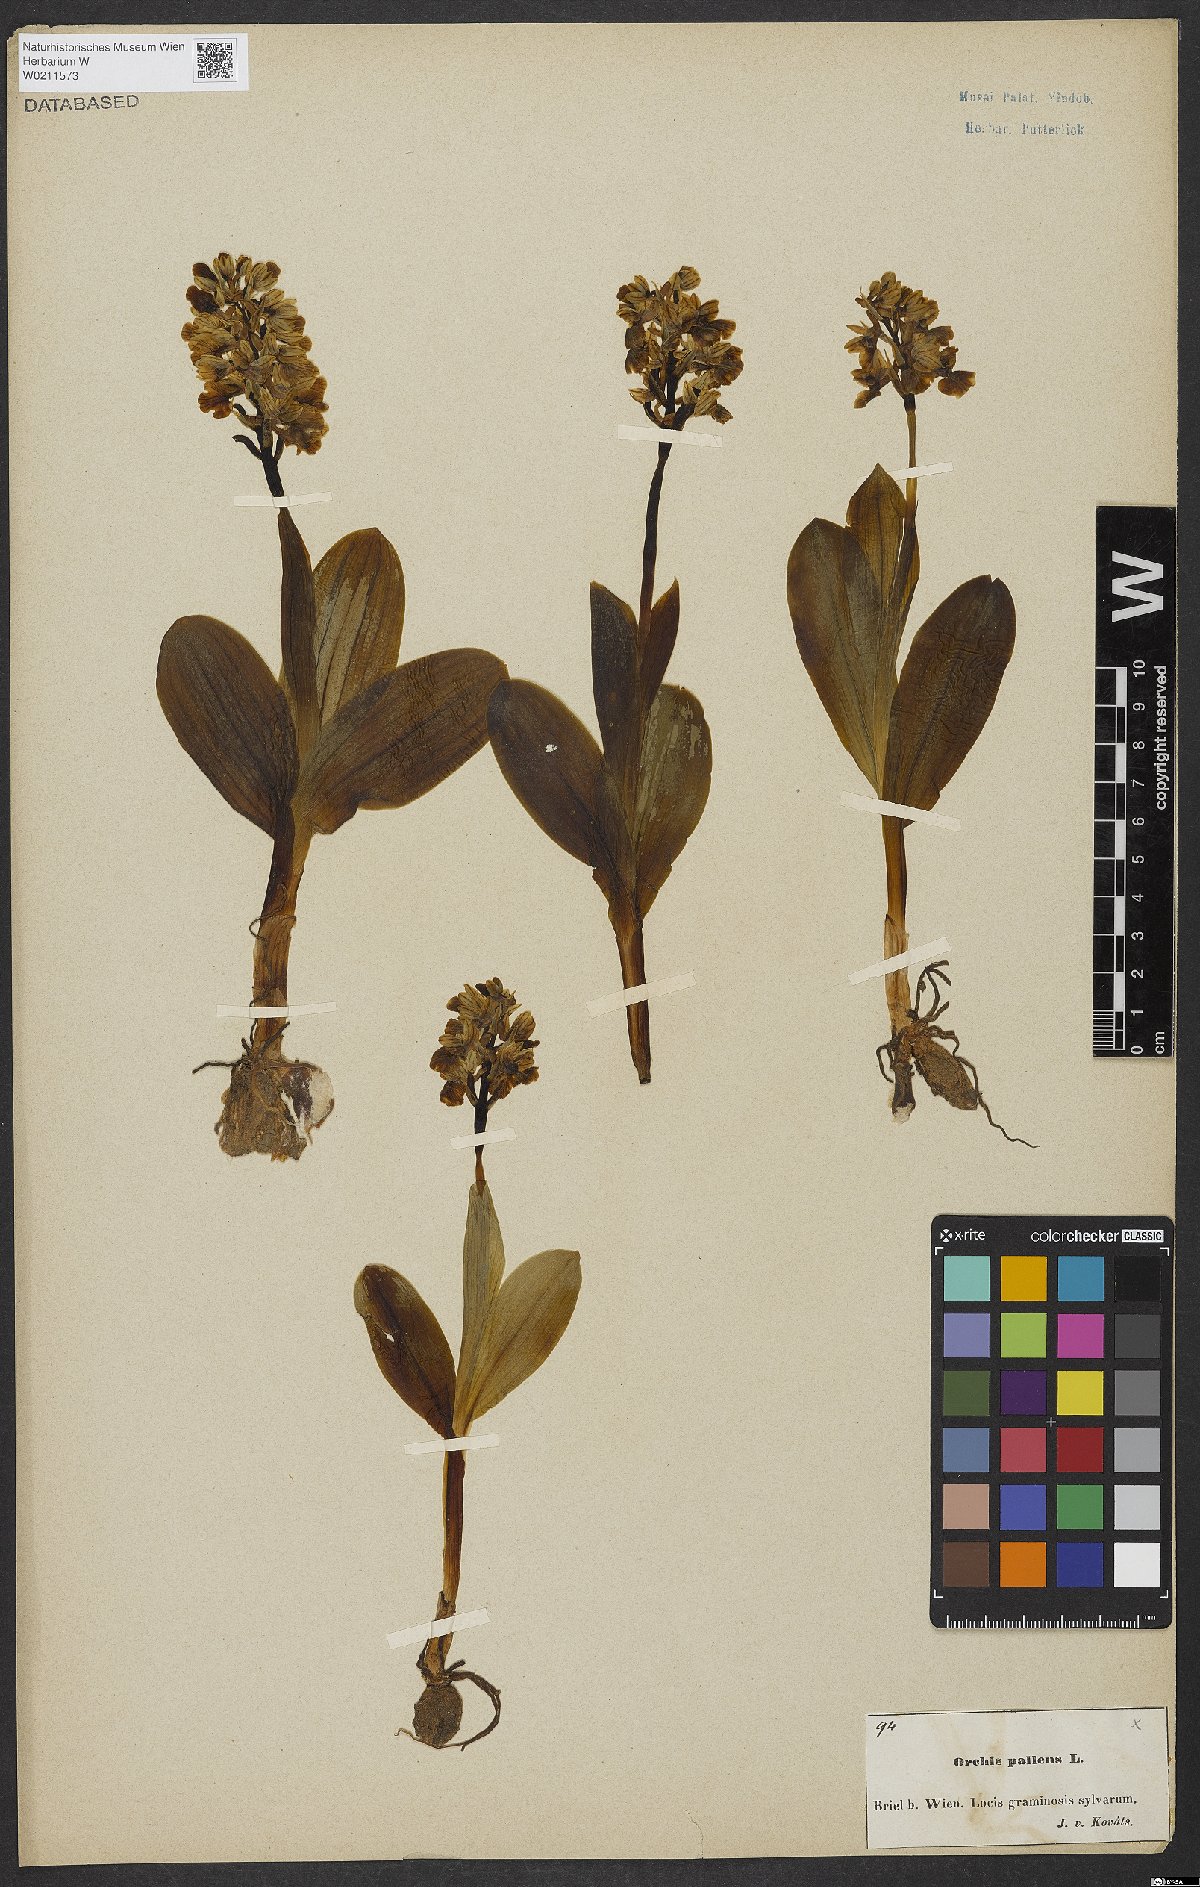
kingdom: Plantae
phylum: Tracheophyta
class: Liliopsida
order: Asparagales
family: Orchidaceae
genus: Orchis
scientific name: Orchis pallens
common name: Pale-flowered orchid
